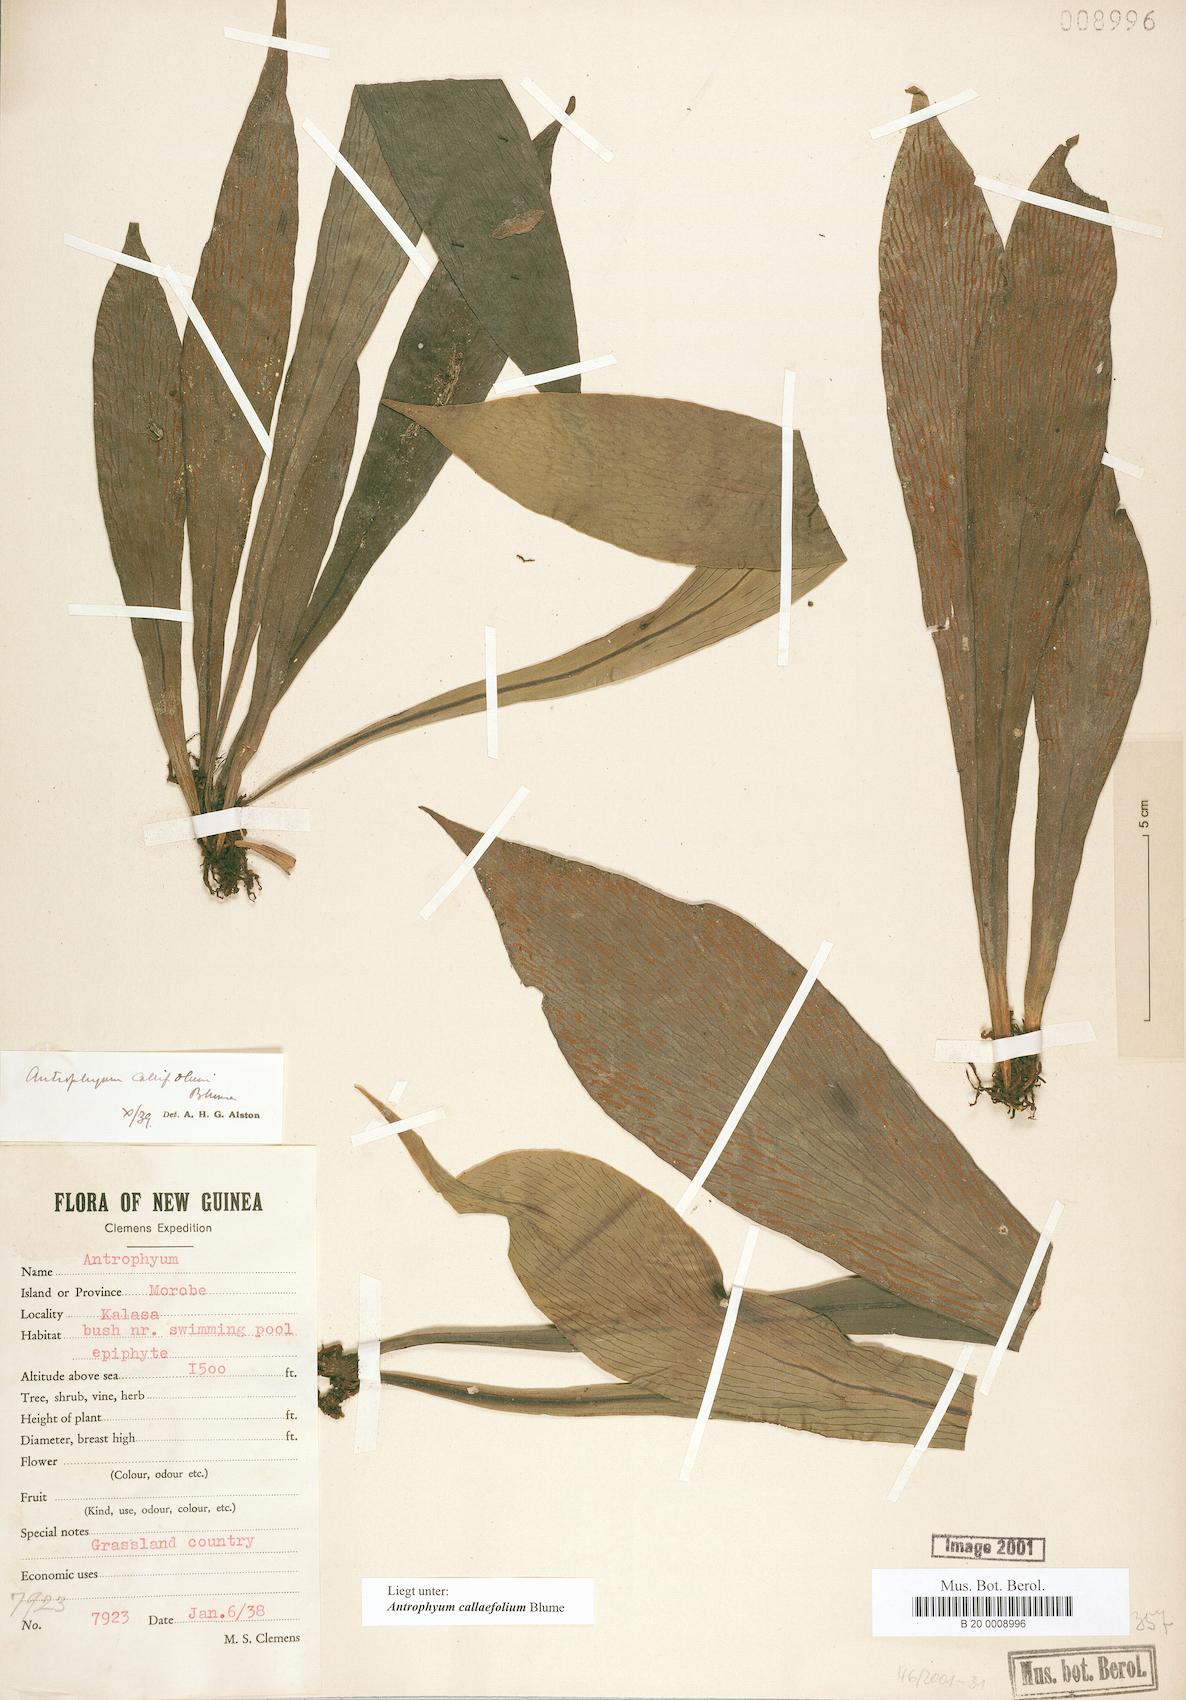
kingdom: Plantae
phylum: Tracheophyta
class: Polypodiopsida
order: Polypodiales
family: Pteridaceae
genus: Antrophyum
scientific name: Antrophyum callifolium
